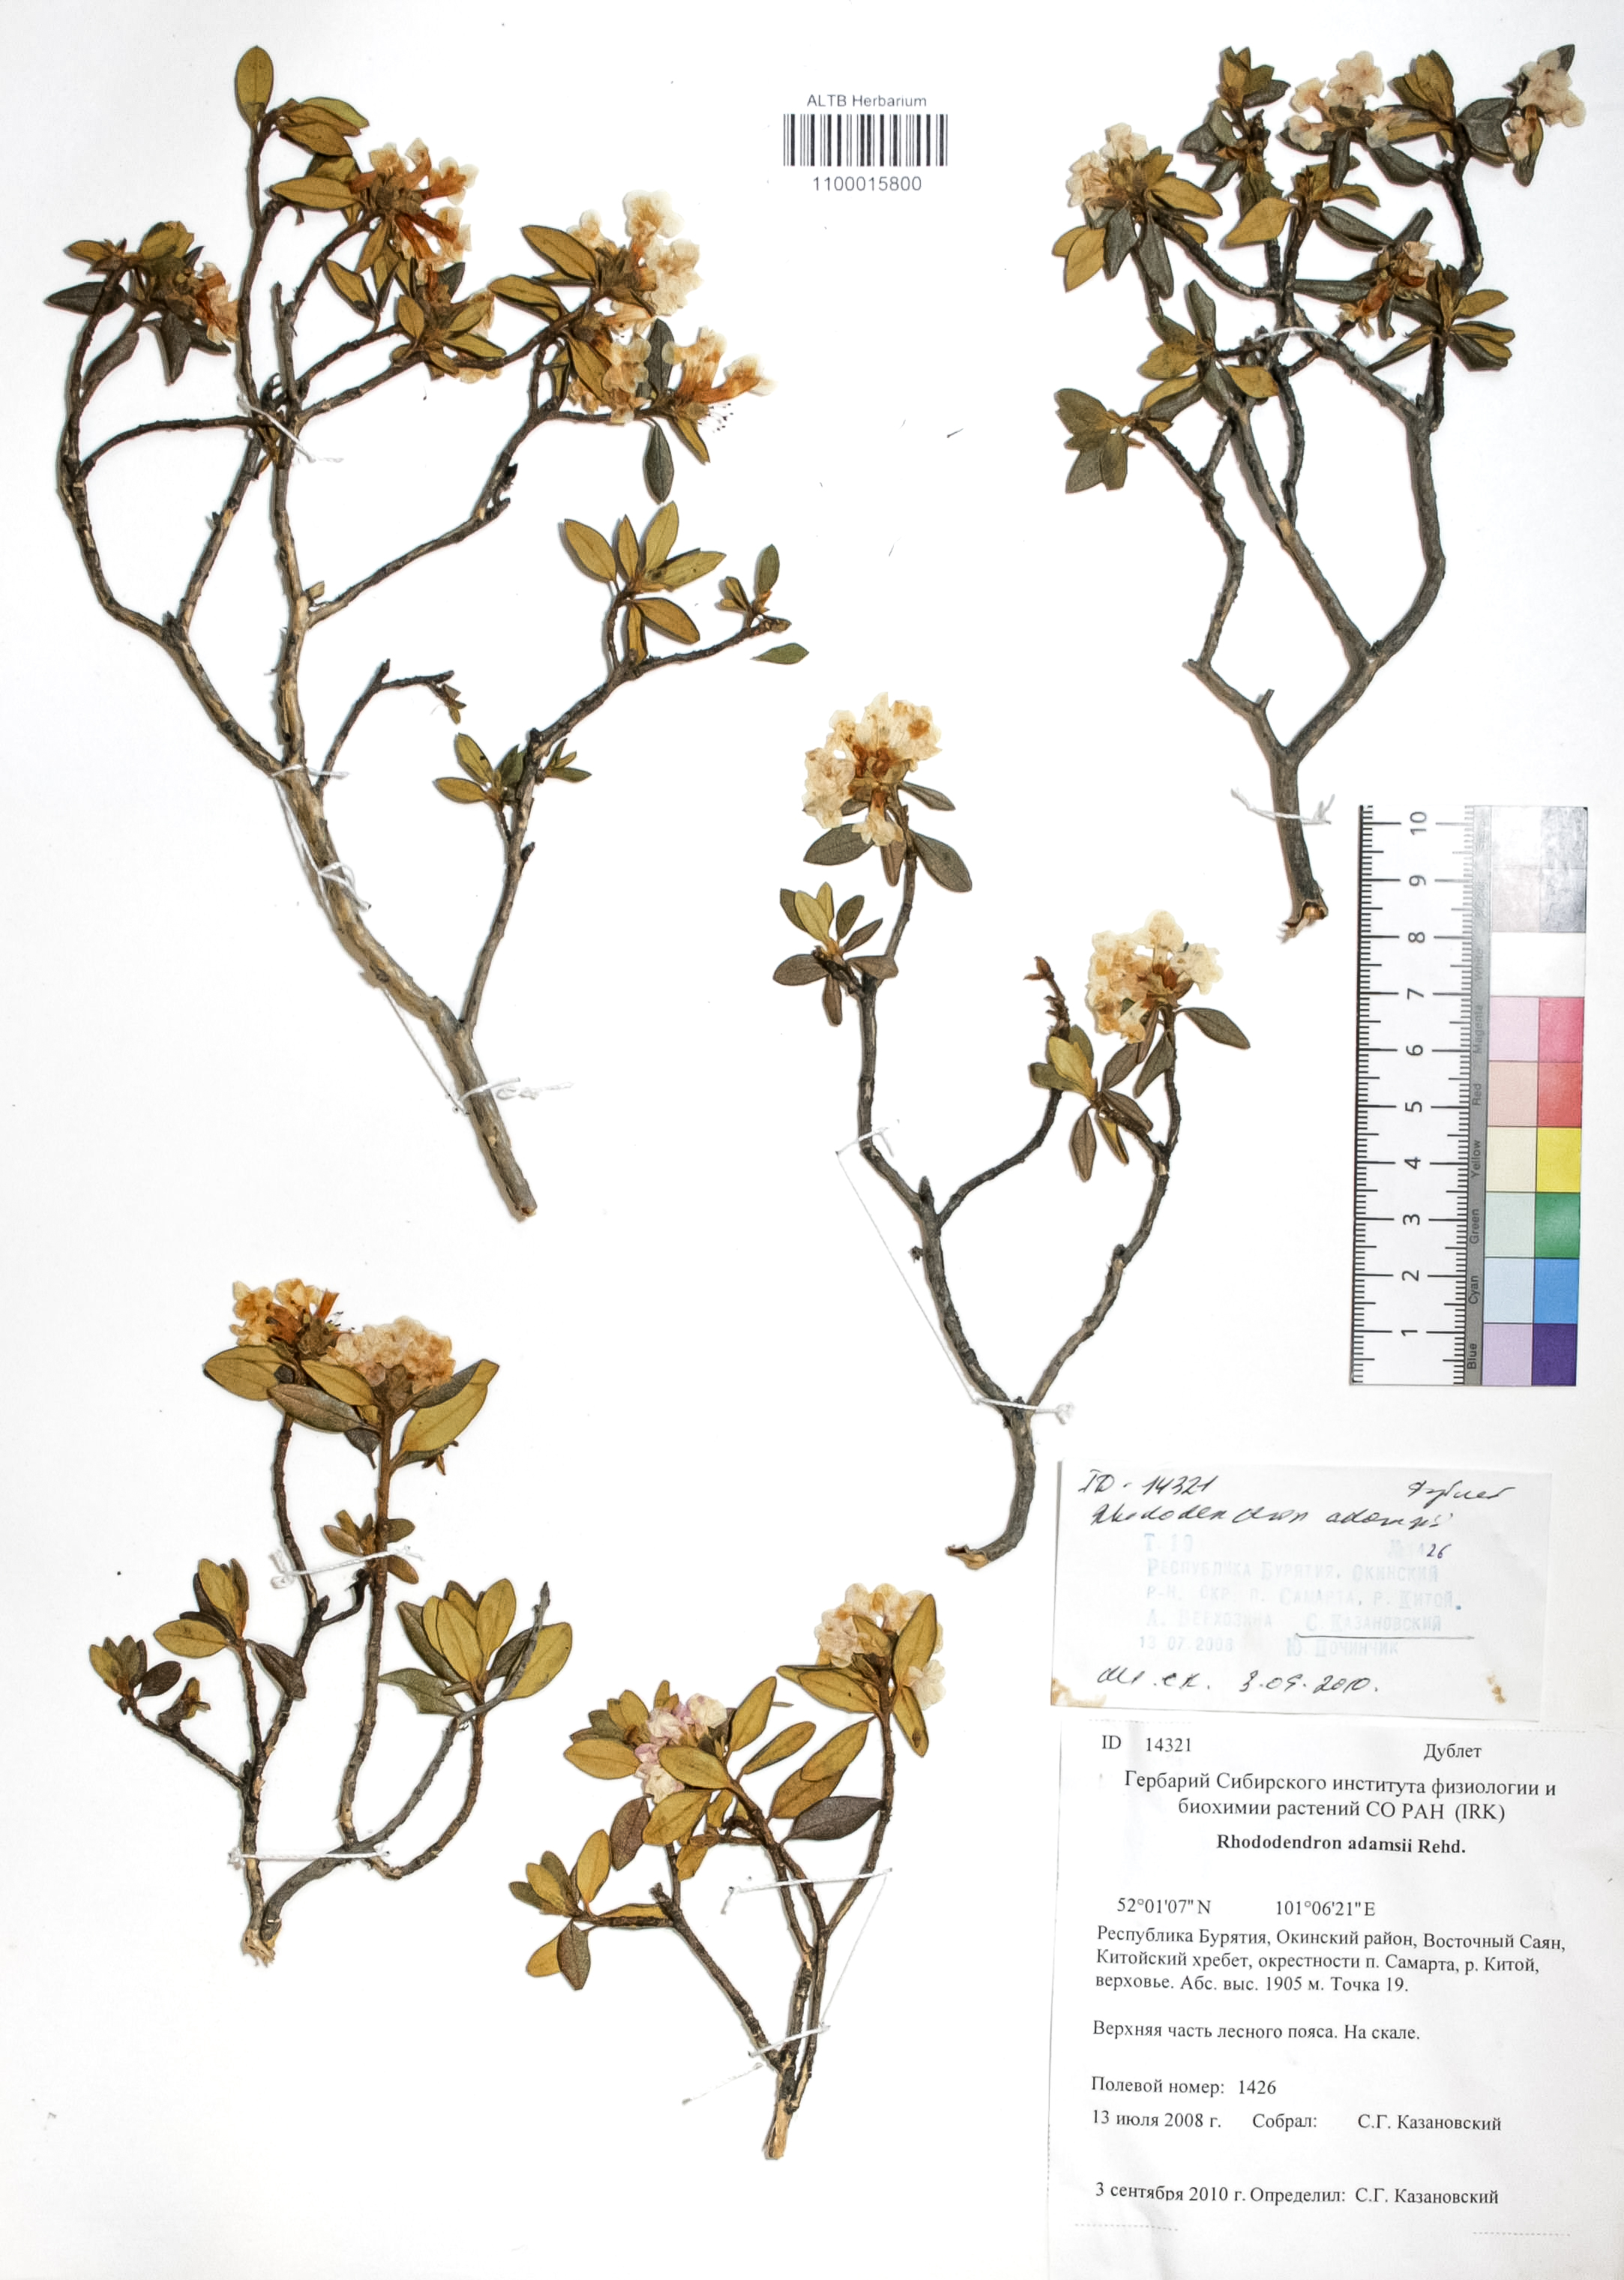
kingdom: Plantae
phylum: Tracheophyta
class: Magnoliopsida
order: Ericales
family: Ericaceae
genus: Rhododendron
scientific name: Rhododendron adamsii
